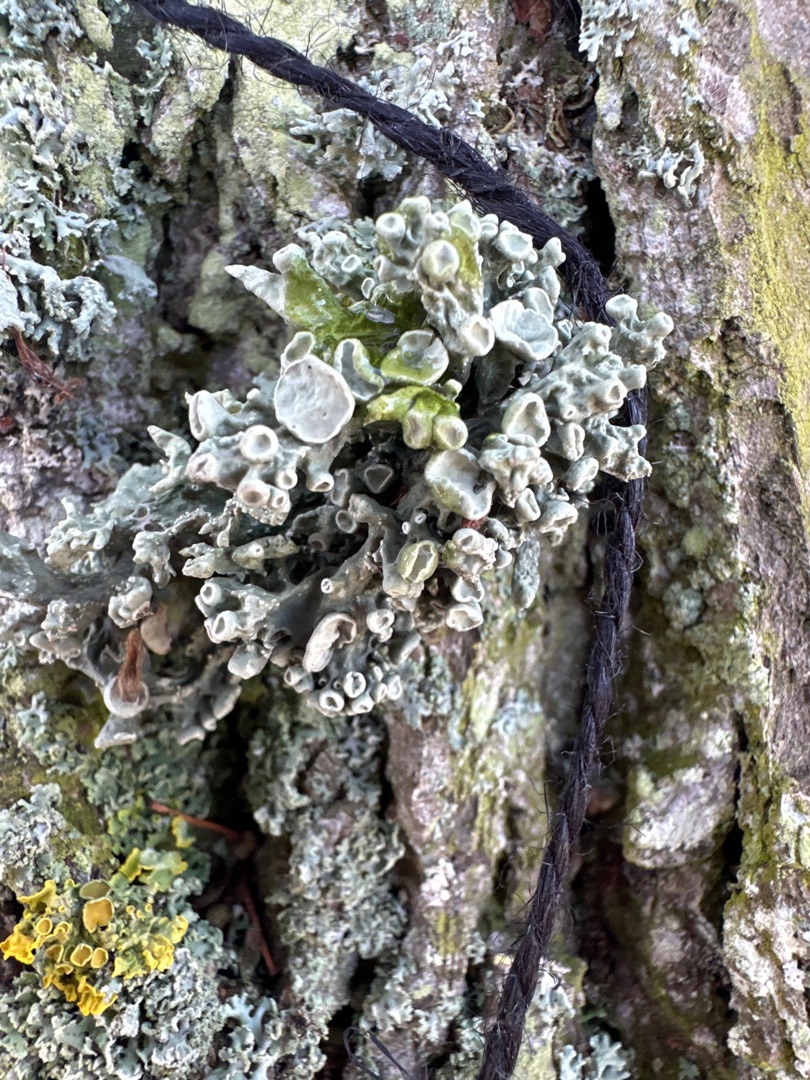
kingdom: Fungi
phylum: Ascomycota
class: Lecanoromycetes
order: Lecanorales
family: Ramalinaceae
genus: Ramalina
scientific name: Ramalina fastigiata
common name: Tue-grenlav
